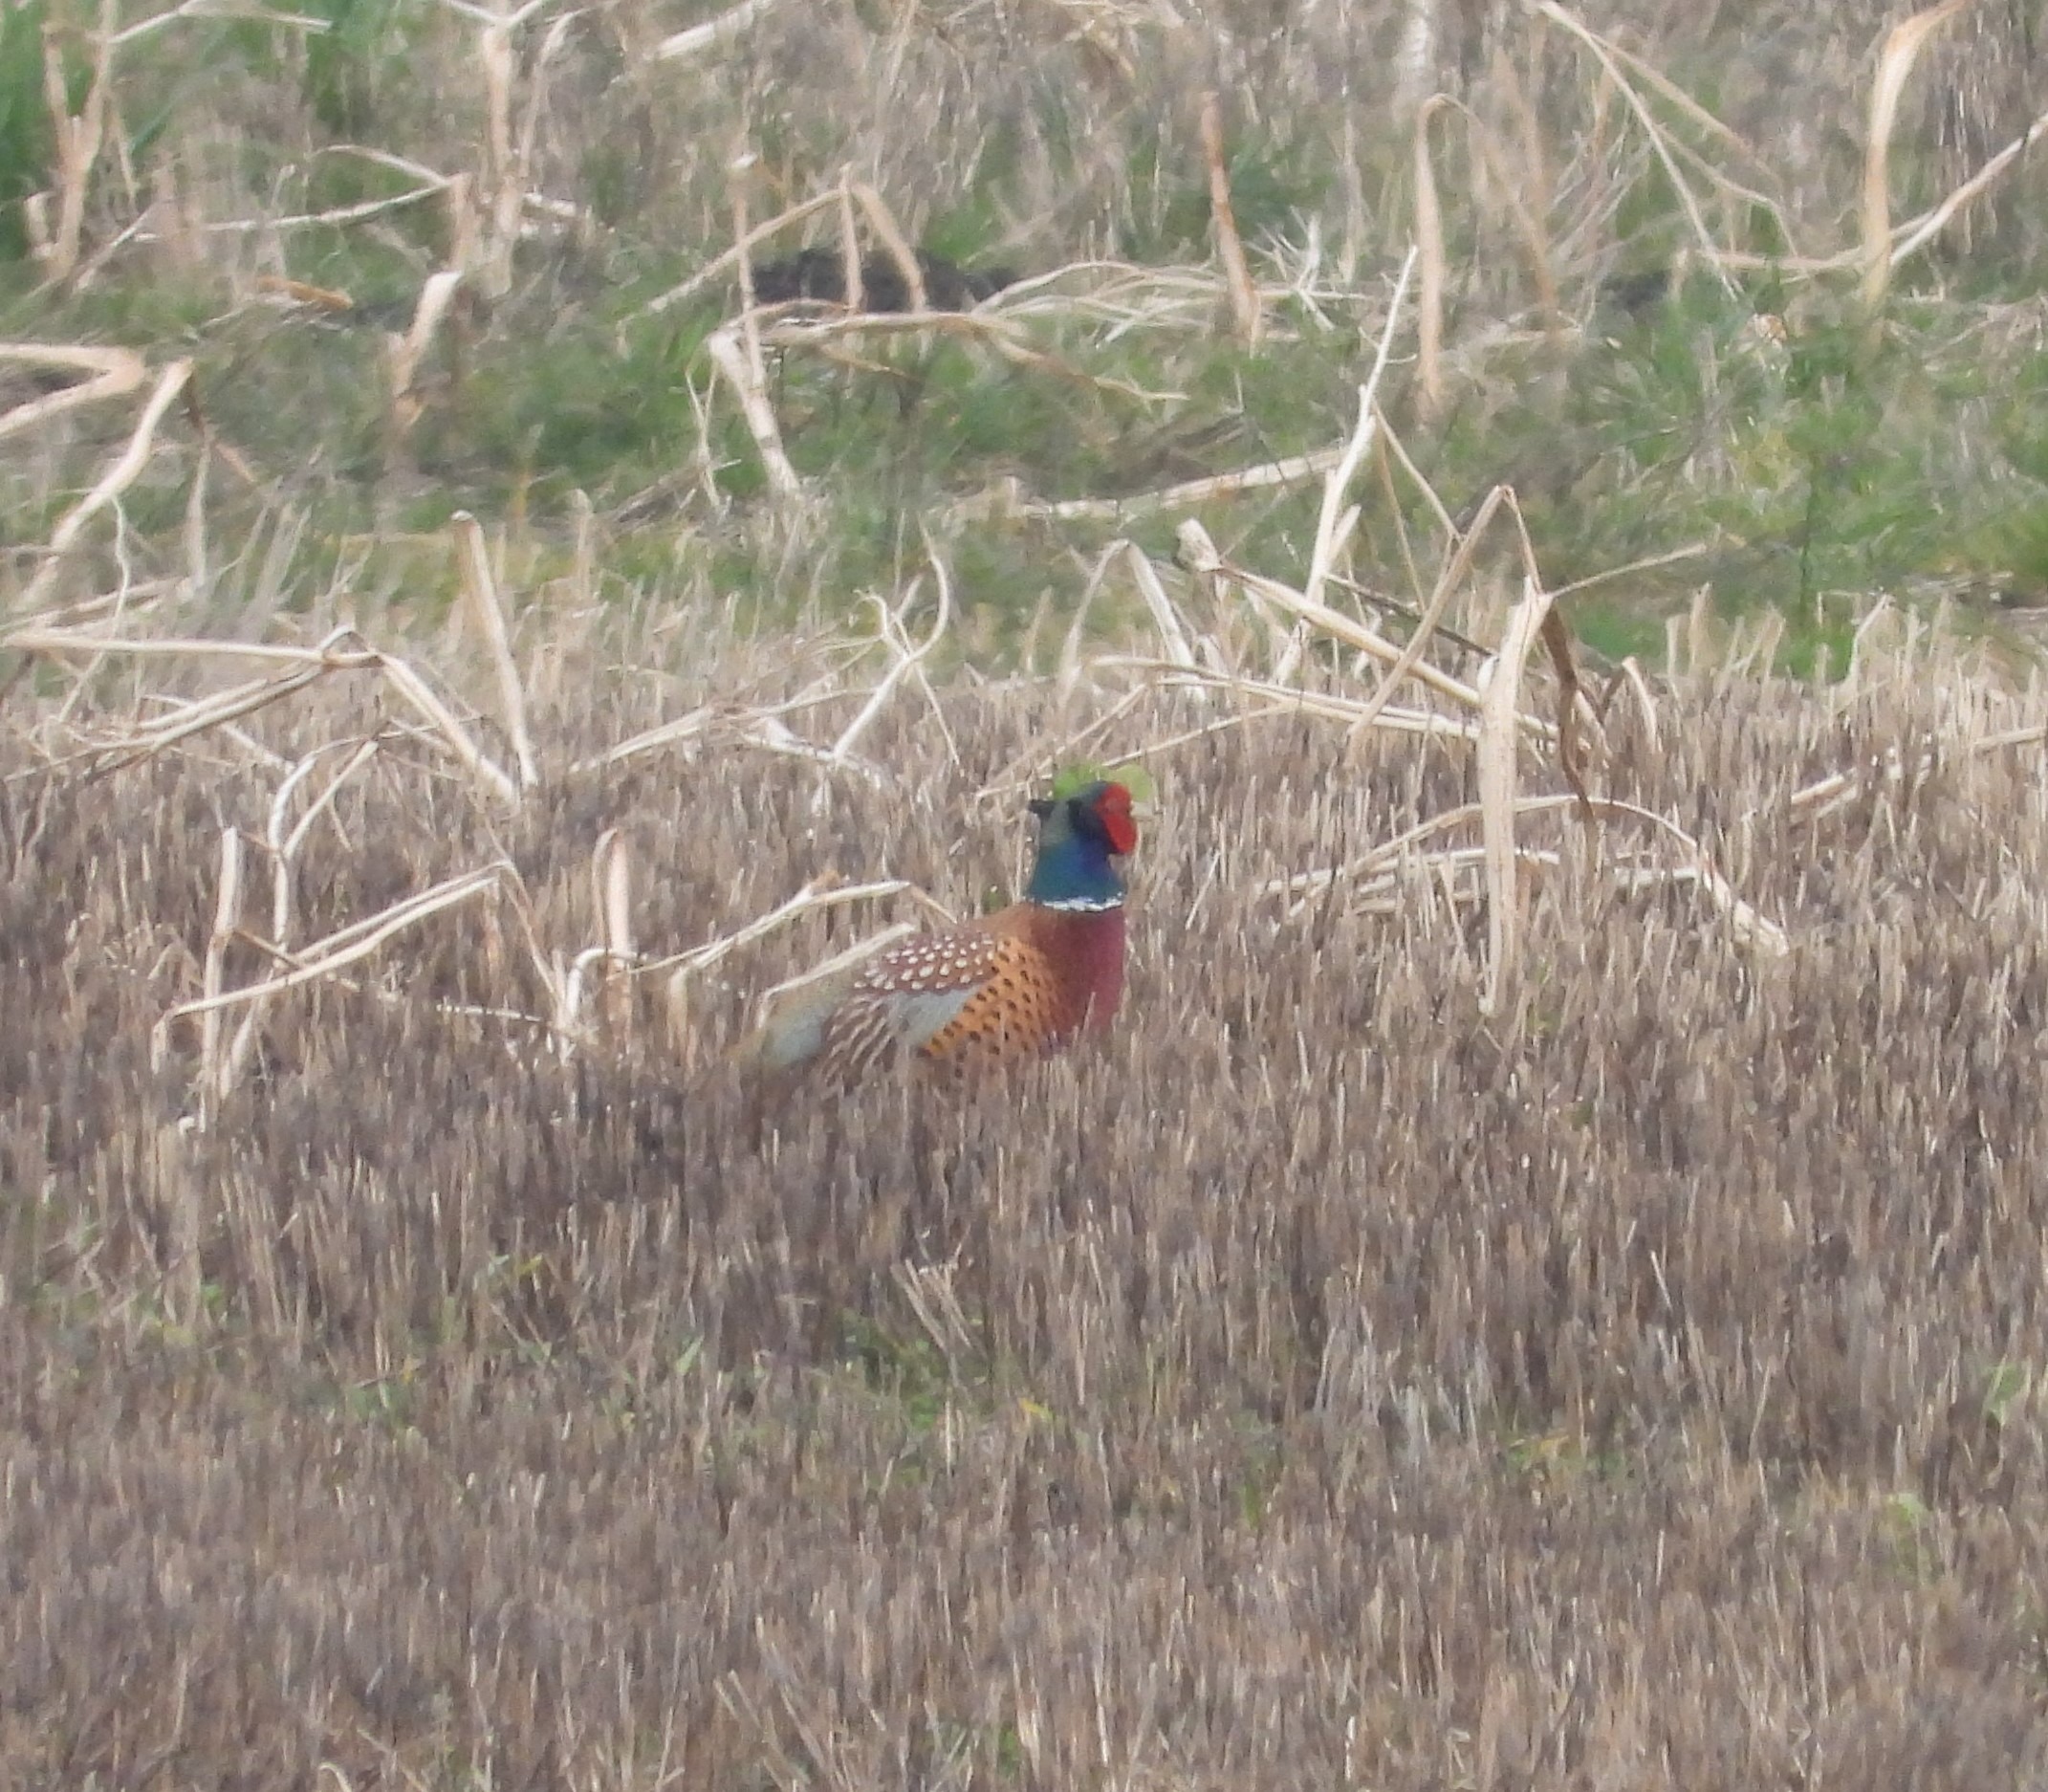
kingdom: Animalia
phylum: Chordata
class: Aves
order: Galliformes
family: Phasianidae
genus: Phasianus
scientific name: Phasianus colchicus
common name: Fasan
